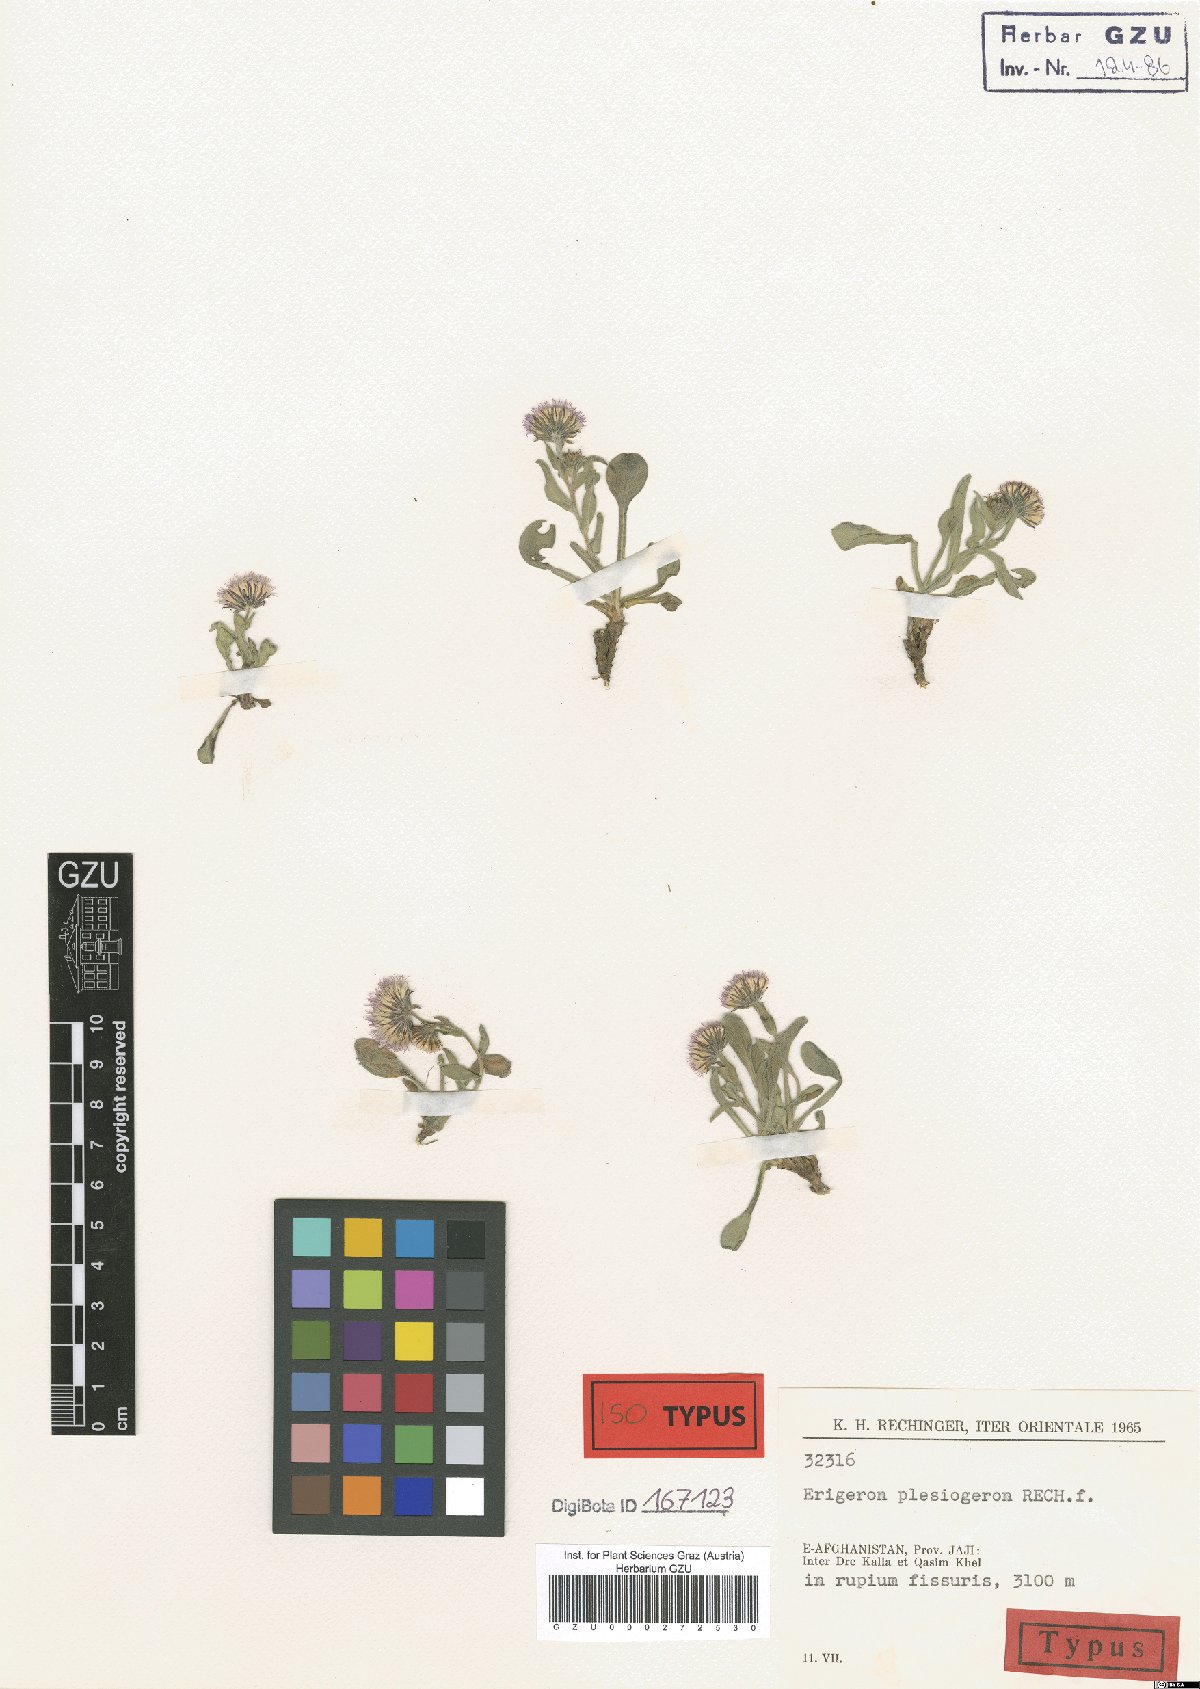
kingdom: Plantae
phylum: Tracheophyta
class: Magnoliopsida
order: Asterales
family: Asteraceae
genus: Erigeron
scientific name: Erigeron plesiogeron
